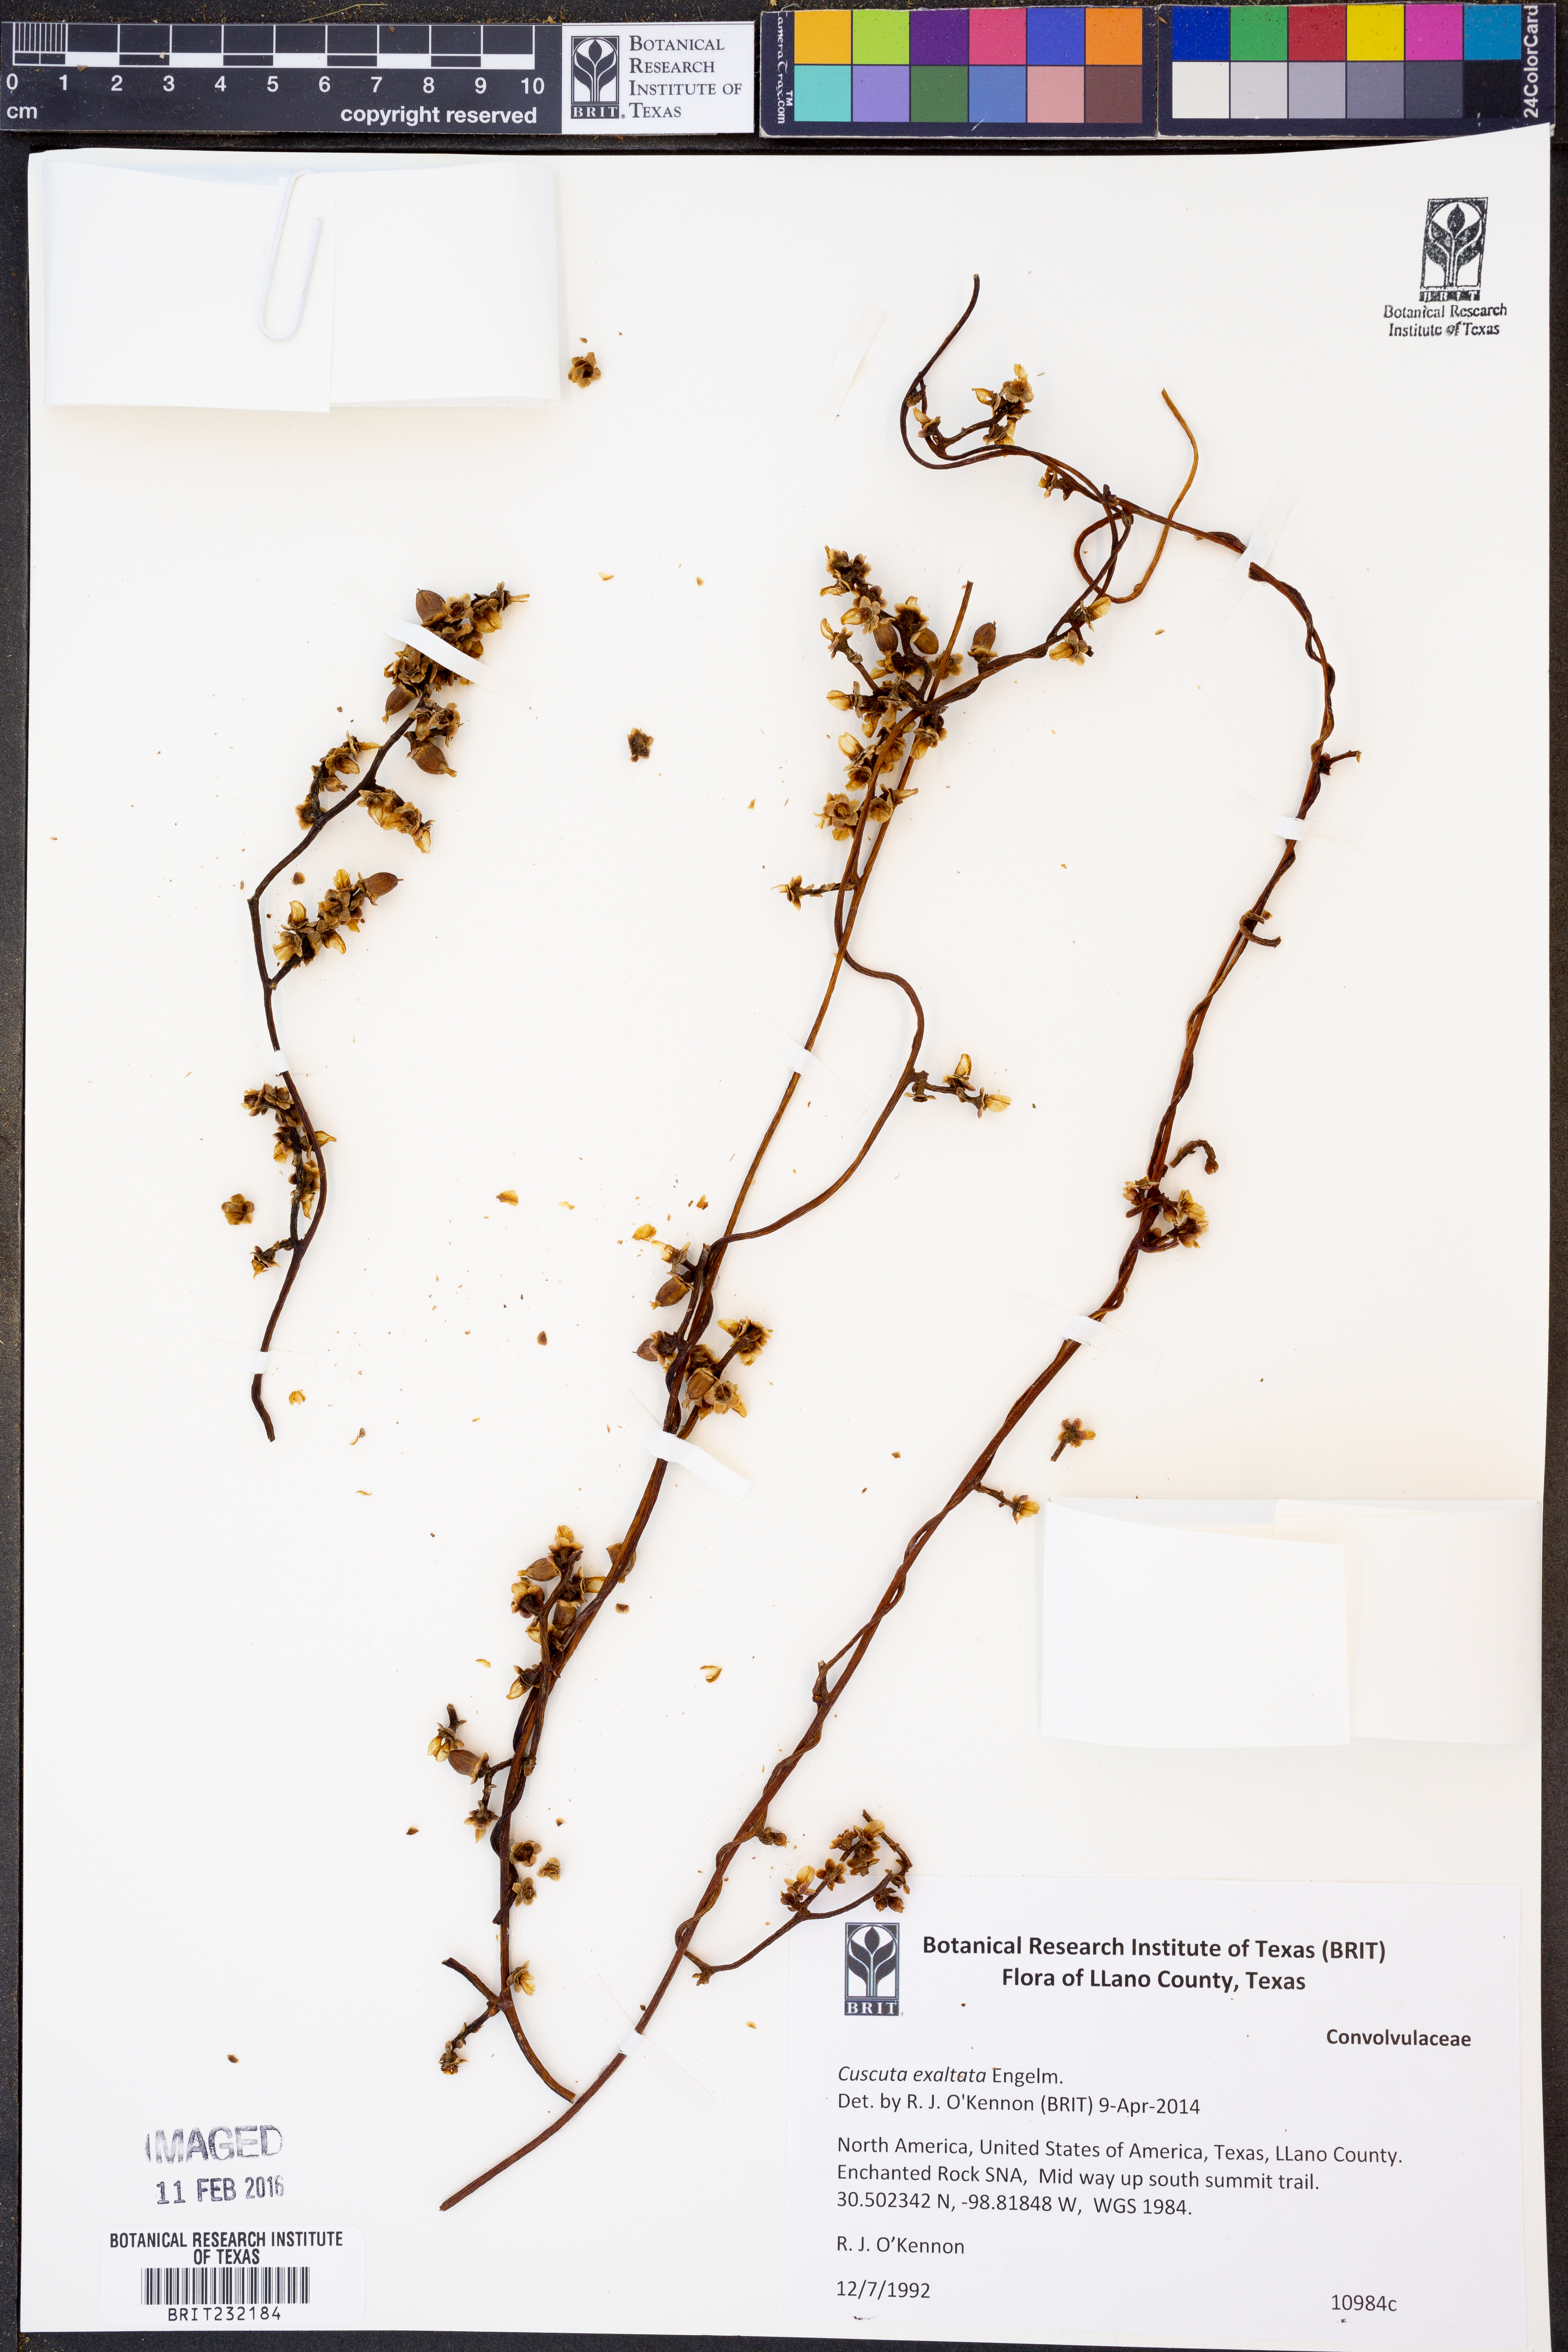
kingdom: Plantae
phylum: Tracheophyta
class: Magnoliopsida
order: Solanales
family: Convolvulaceae
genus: Cuscuta
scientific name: Cuscuta exaltata
